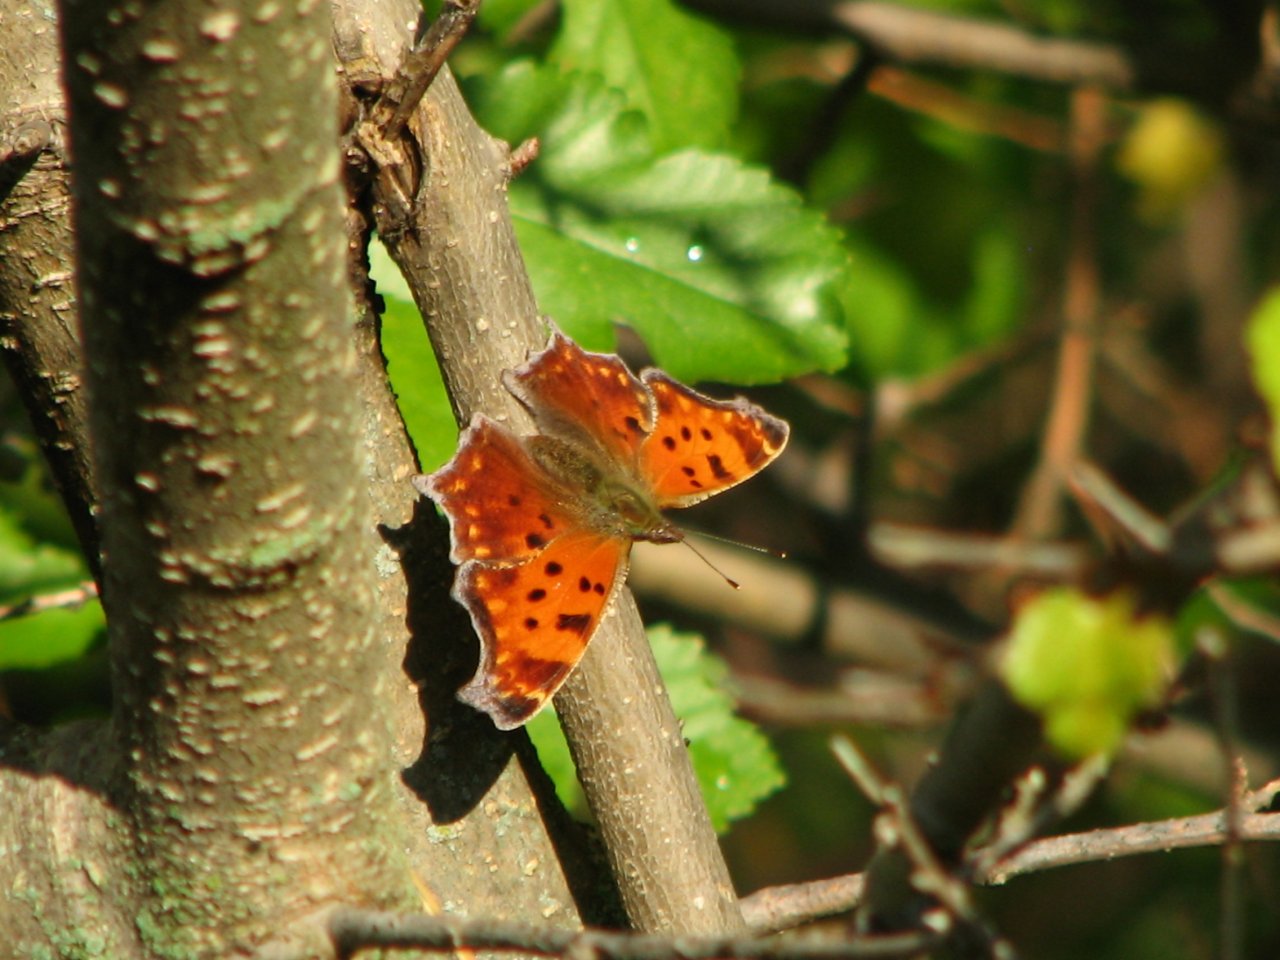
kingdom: Animalia
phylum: Arthropoda
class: Insecta
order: Lepidoptera
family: Nymphalidae
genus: Polygonia
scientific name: Polygonia comma
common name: Eastern Comma
